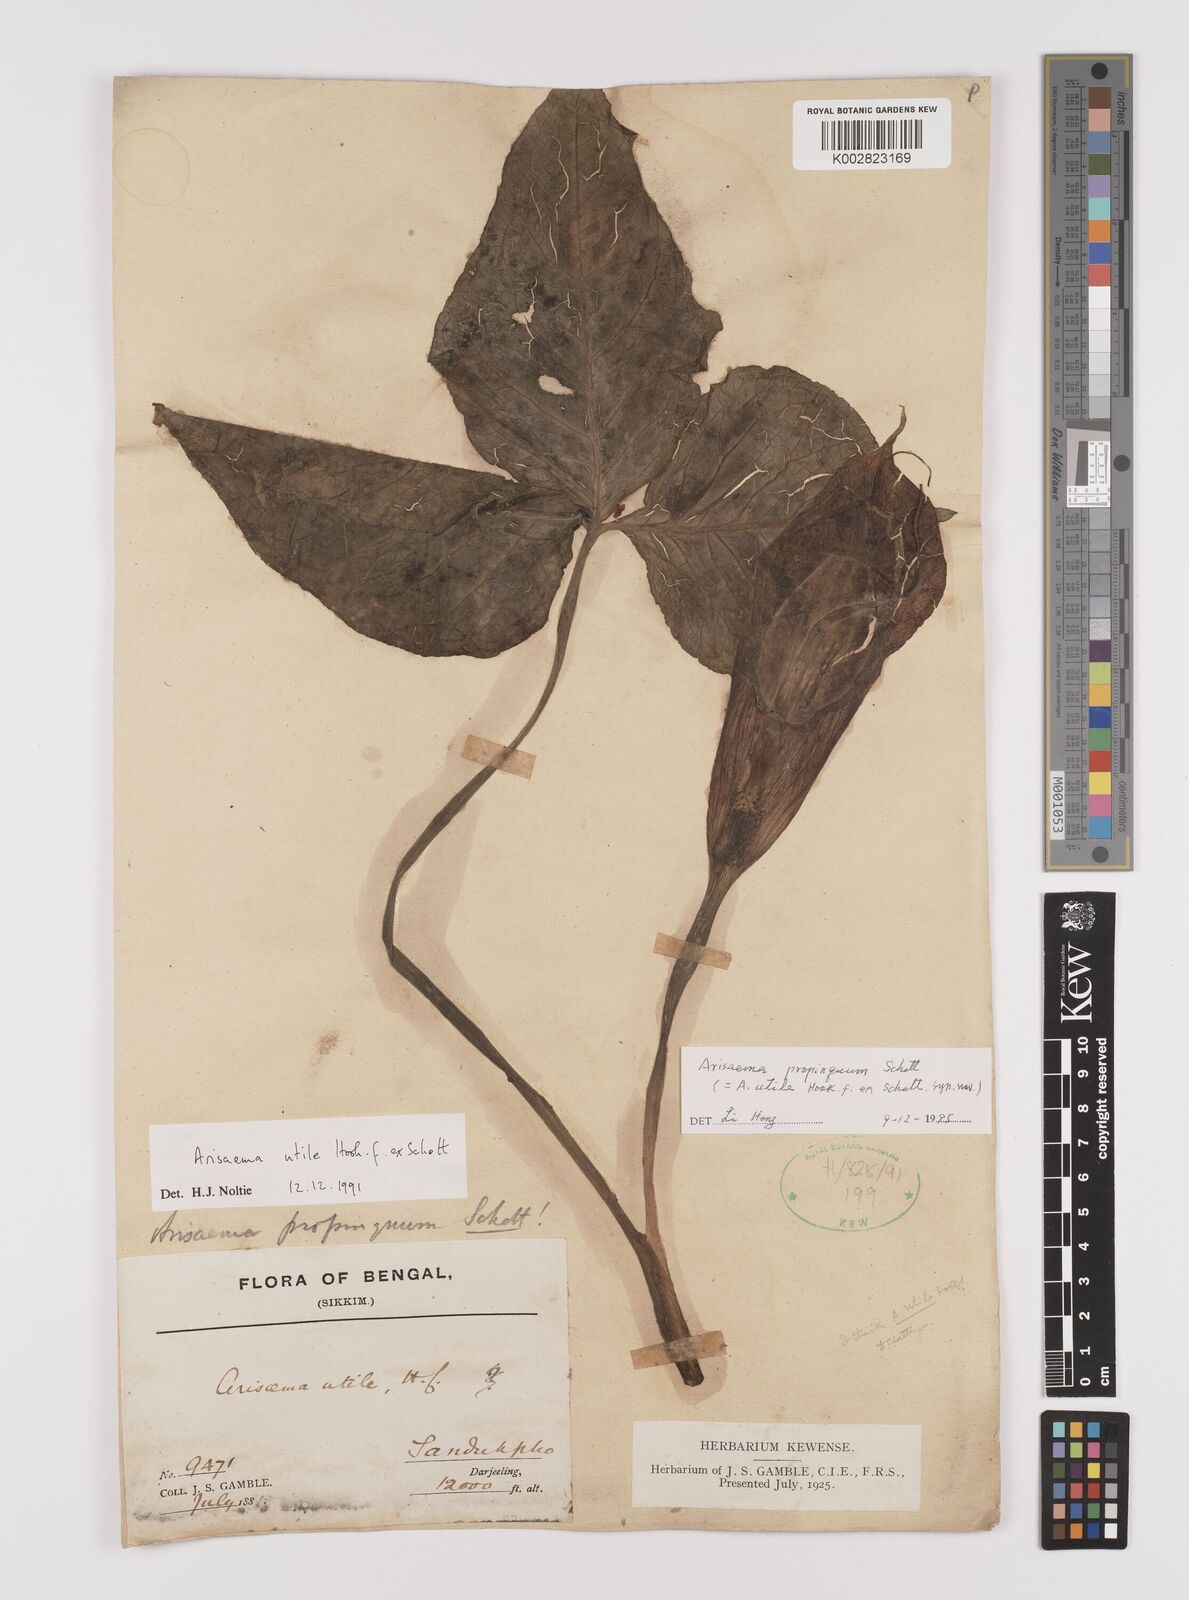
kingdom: Plantae
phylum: Tracheophyta
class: Liliopsida
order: Alismatales
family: Araceae
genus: Arisaema
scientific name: Arisaema propinquum
